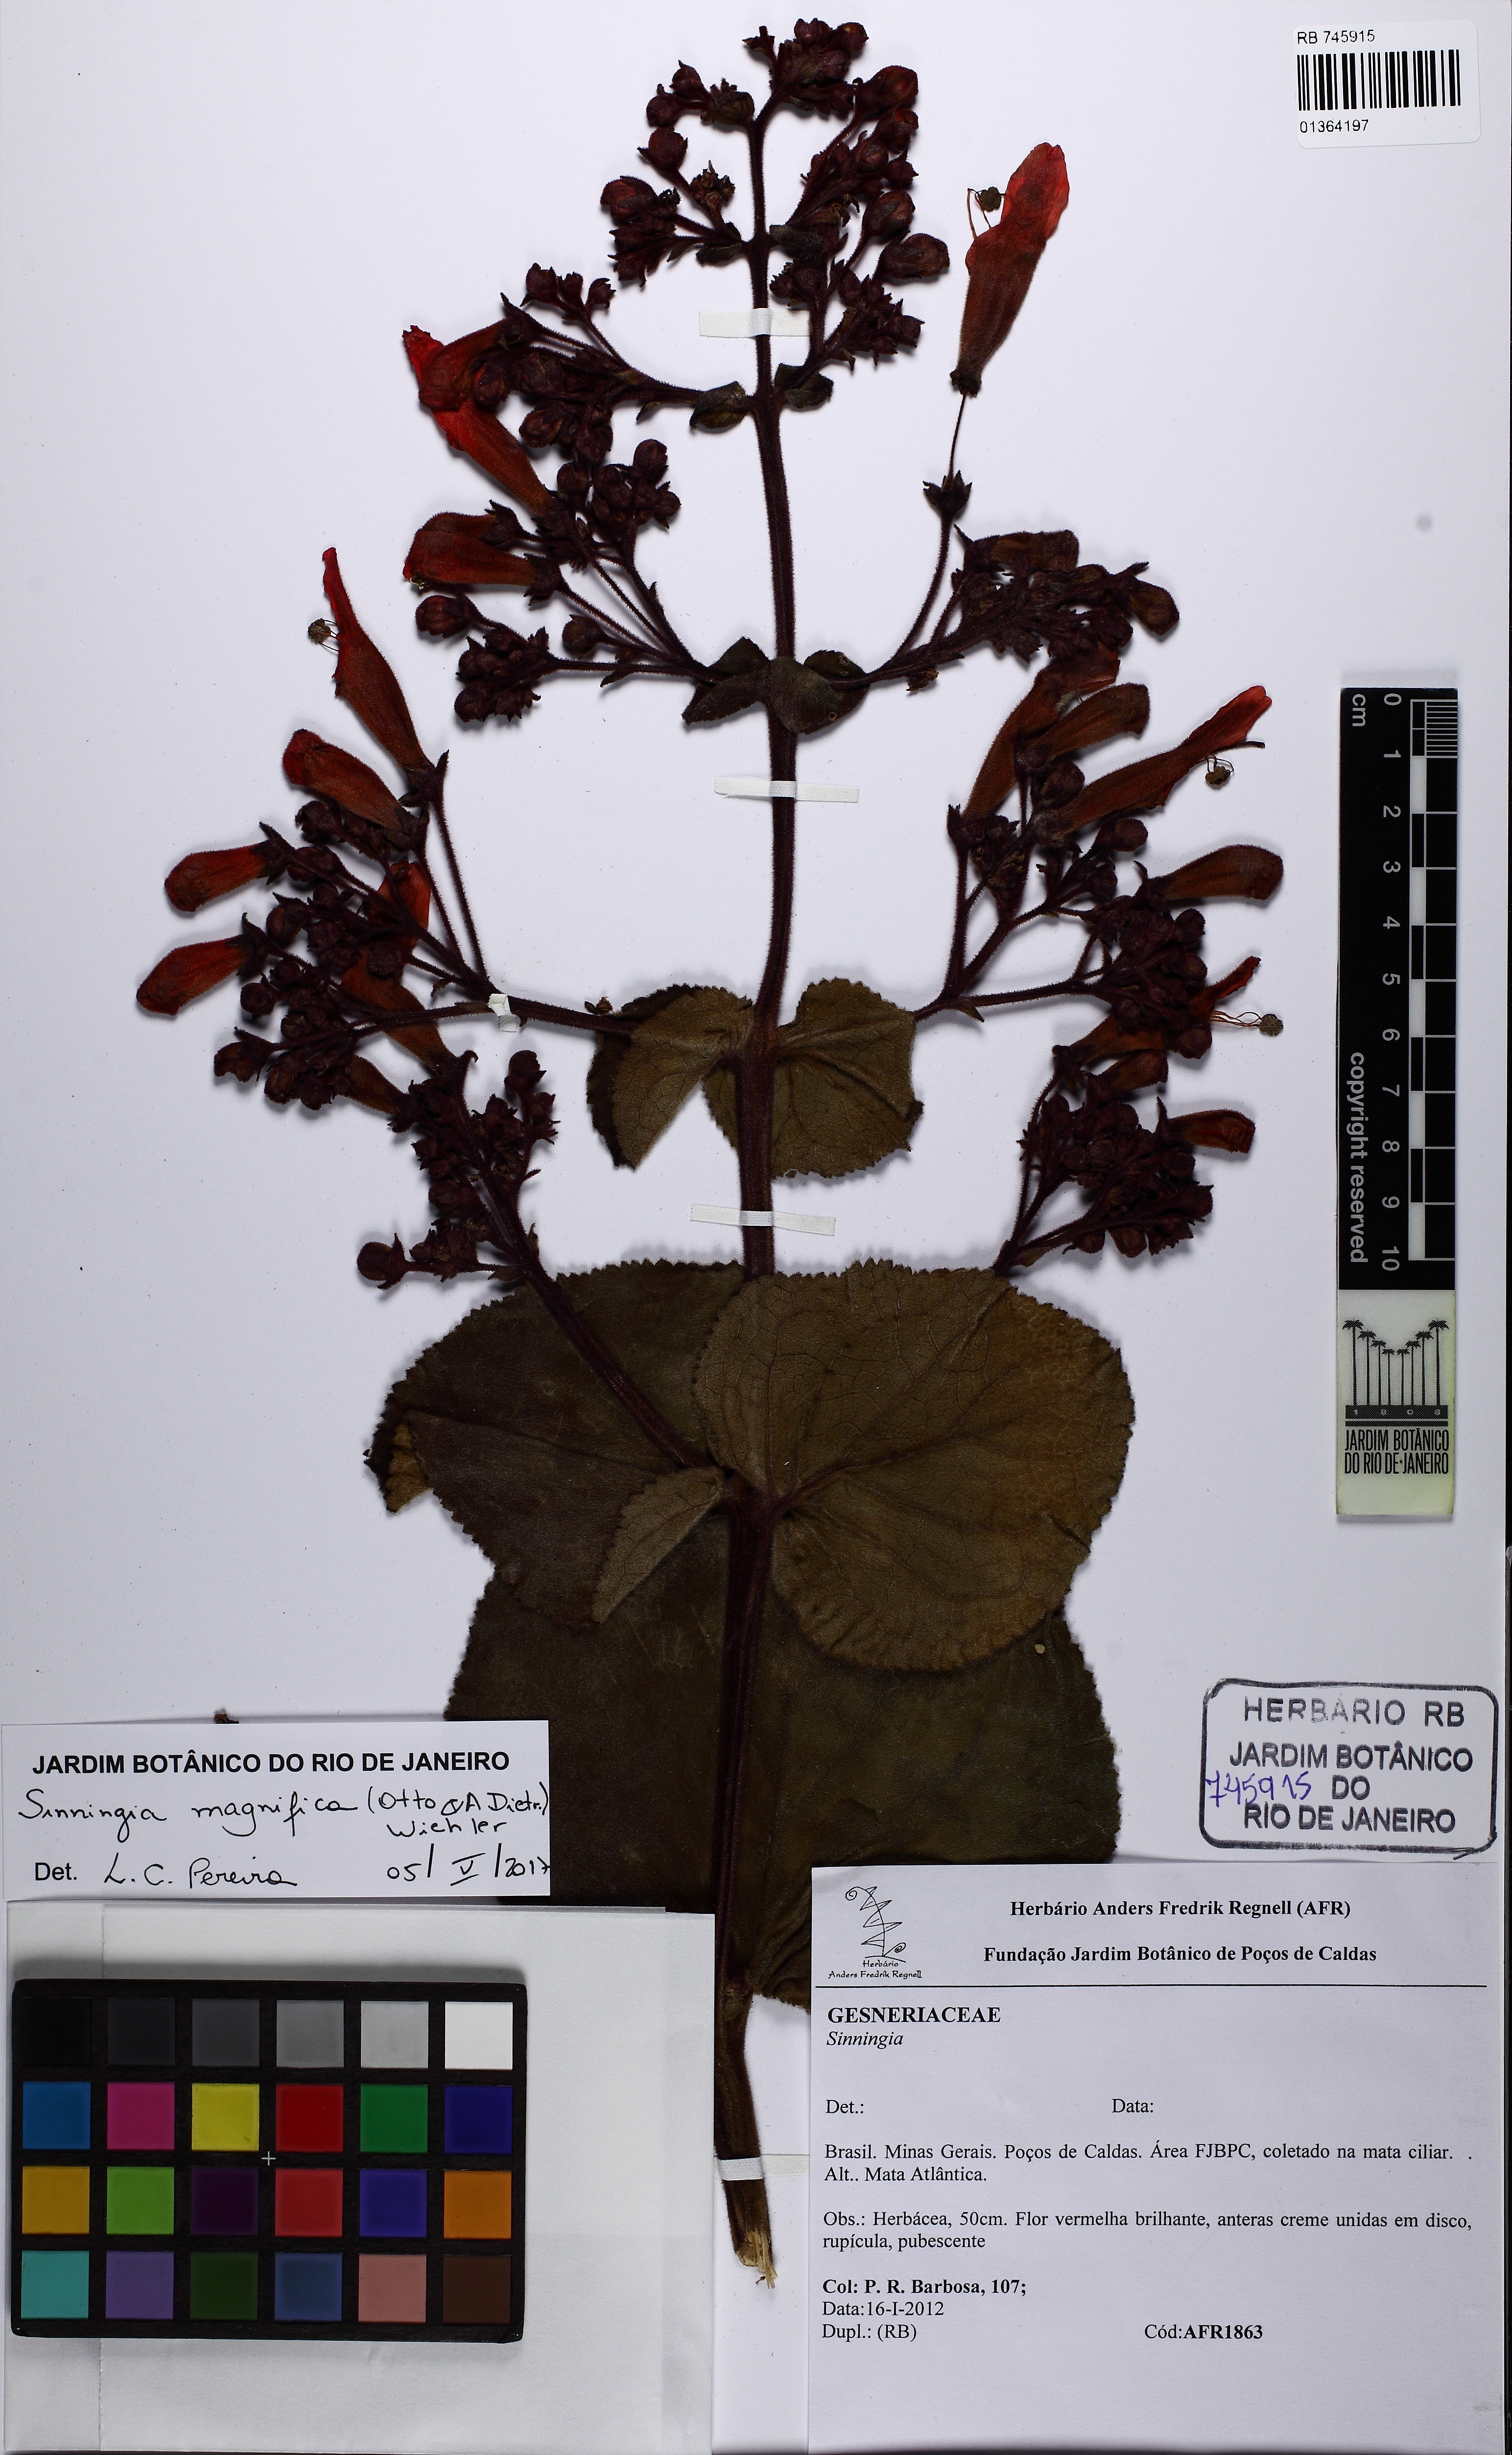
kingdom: Plantae
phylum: Tracheophyta
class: Magnoliopsida
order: Lamiales
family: Gesneriaceae
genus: Sinningia
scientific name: Sinningia magnifica
